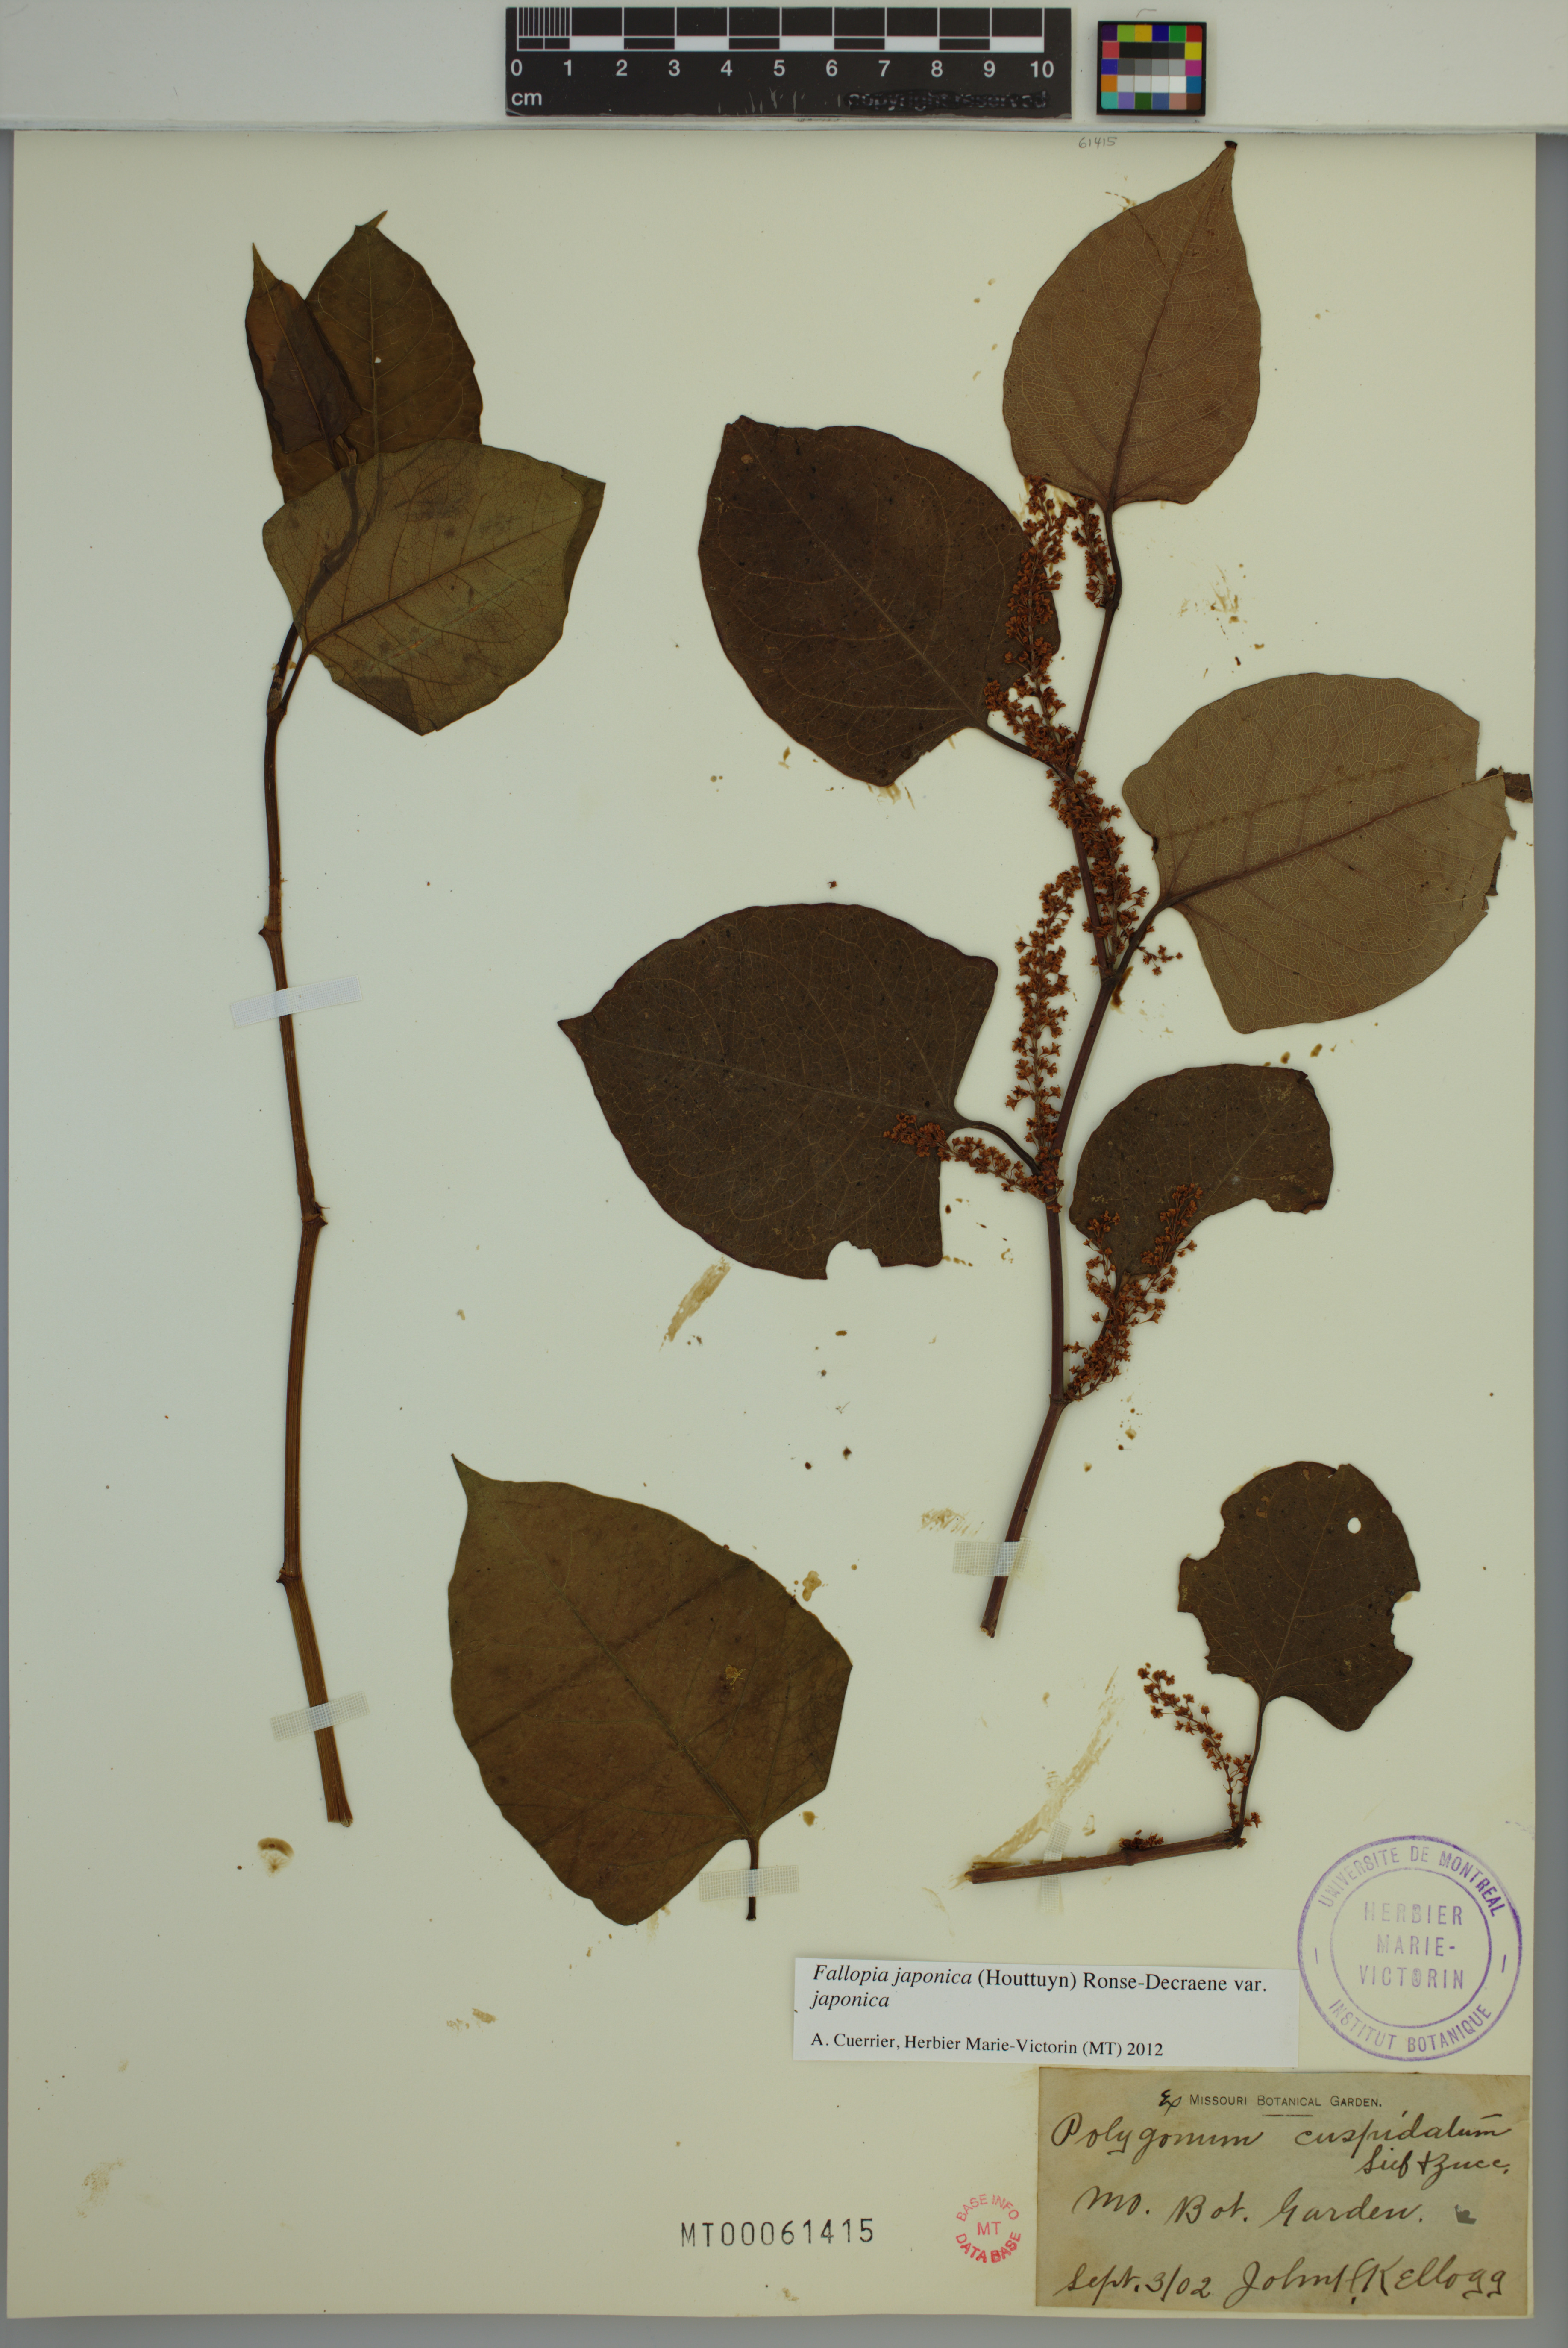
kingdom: Plantae
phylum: Tracheophyta
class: Magnoliopsida
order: Caryophyllales
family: Polygonaceae
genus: Reynoutria
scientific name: Reynoutria japonica
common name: Japanese knotweed
